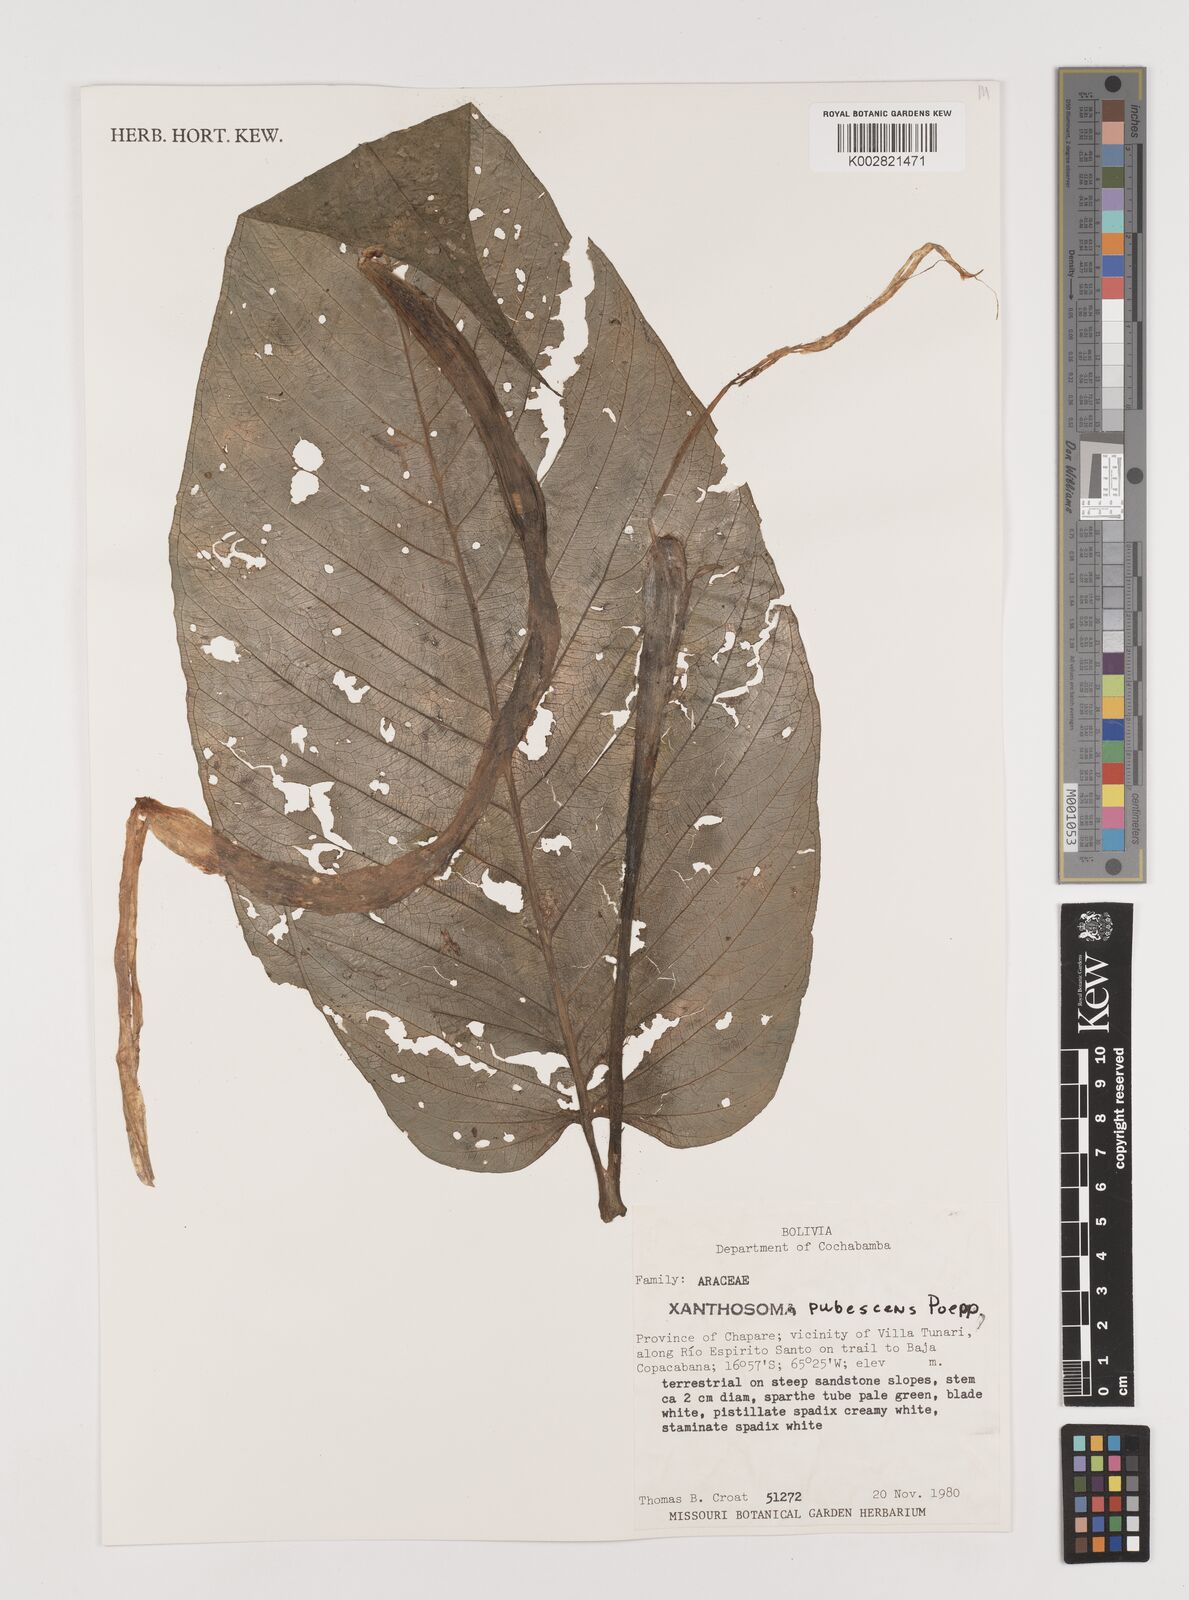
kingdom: Plantae
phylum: Tracheophyta
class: Liliopsida
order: Alismatales
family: Araceae
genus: Xanthosoma
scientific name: Xanthosoma pubescens
